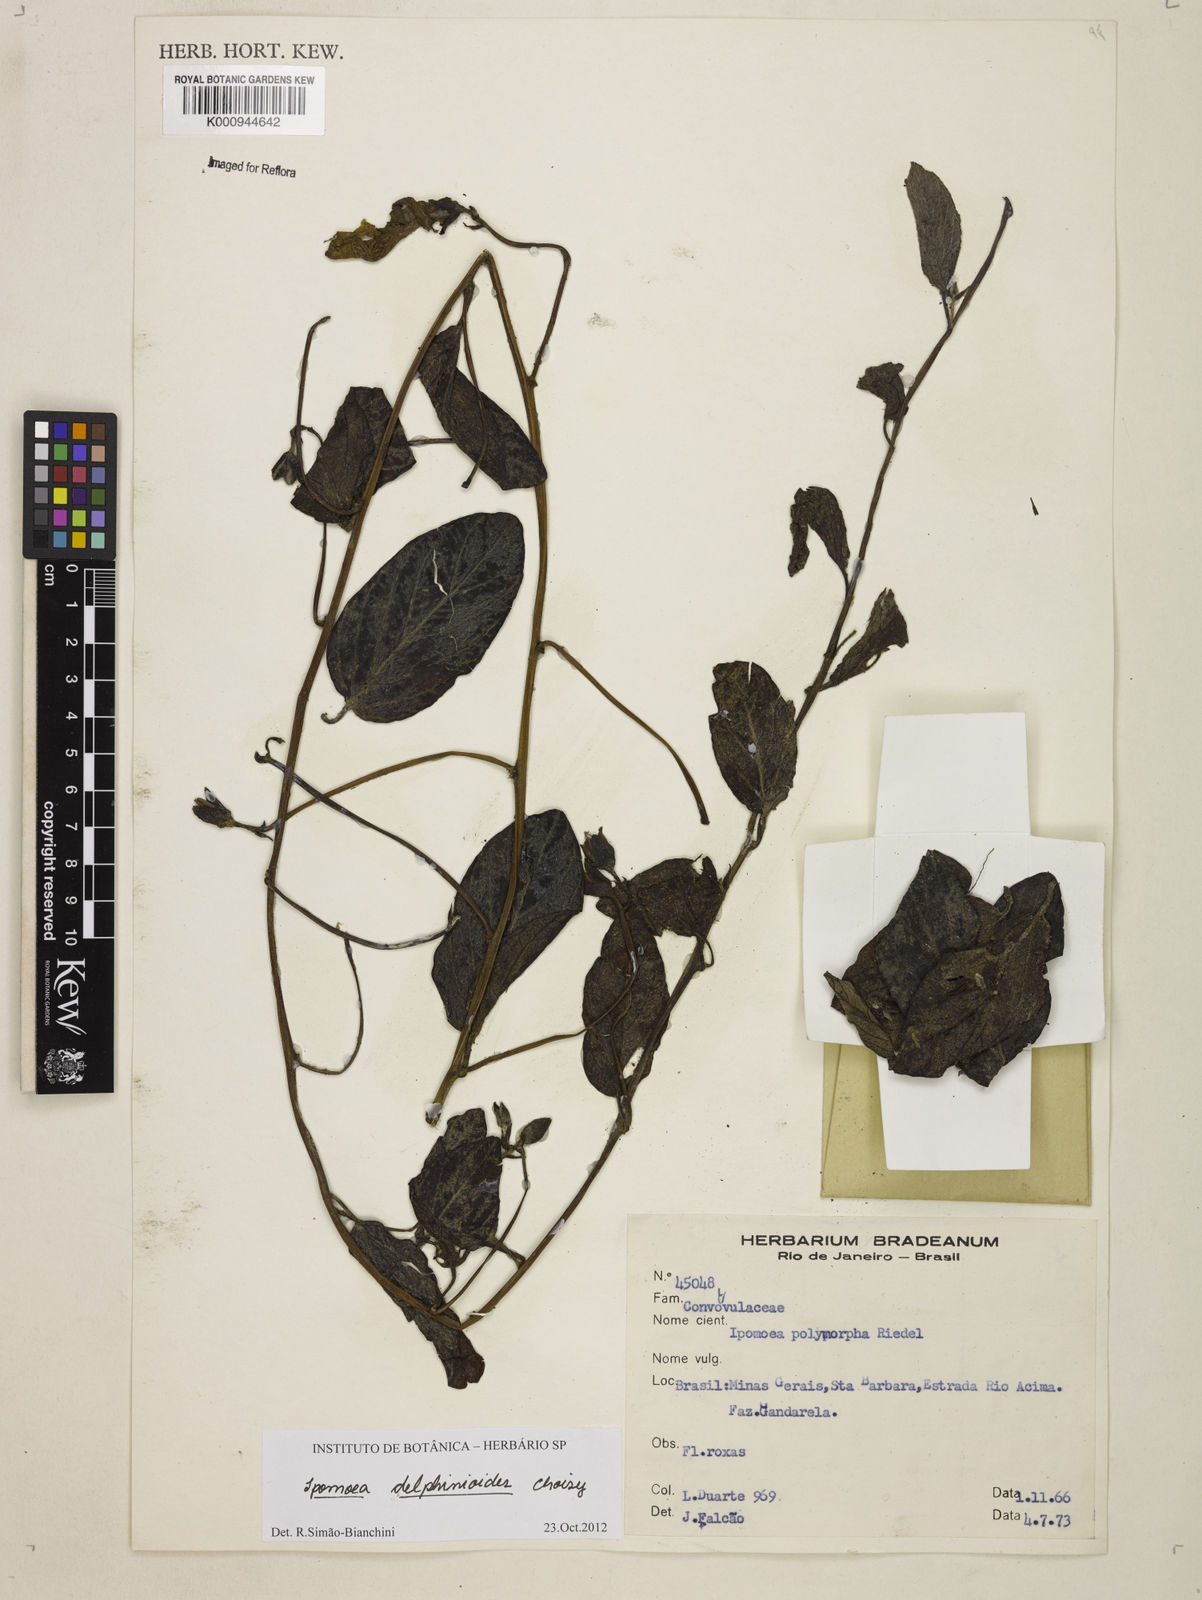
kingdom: Plantae
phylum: Tracheophyta
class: Magnoliopsida
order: Solanales
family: Convolvulaceae
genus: Ipomoea
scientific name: Ipomoea delphinioides
